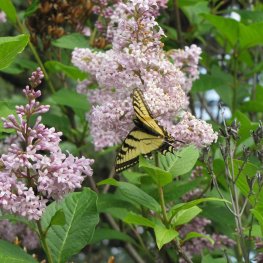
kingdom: Animalia
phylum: Arthropoda
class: Insecta
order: Lepidoptera
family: Papilionidae
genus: Pterourus
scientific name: Pterourus canadensis
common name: Canadian Tiger Swallowtail
